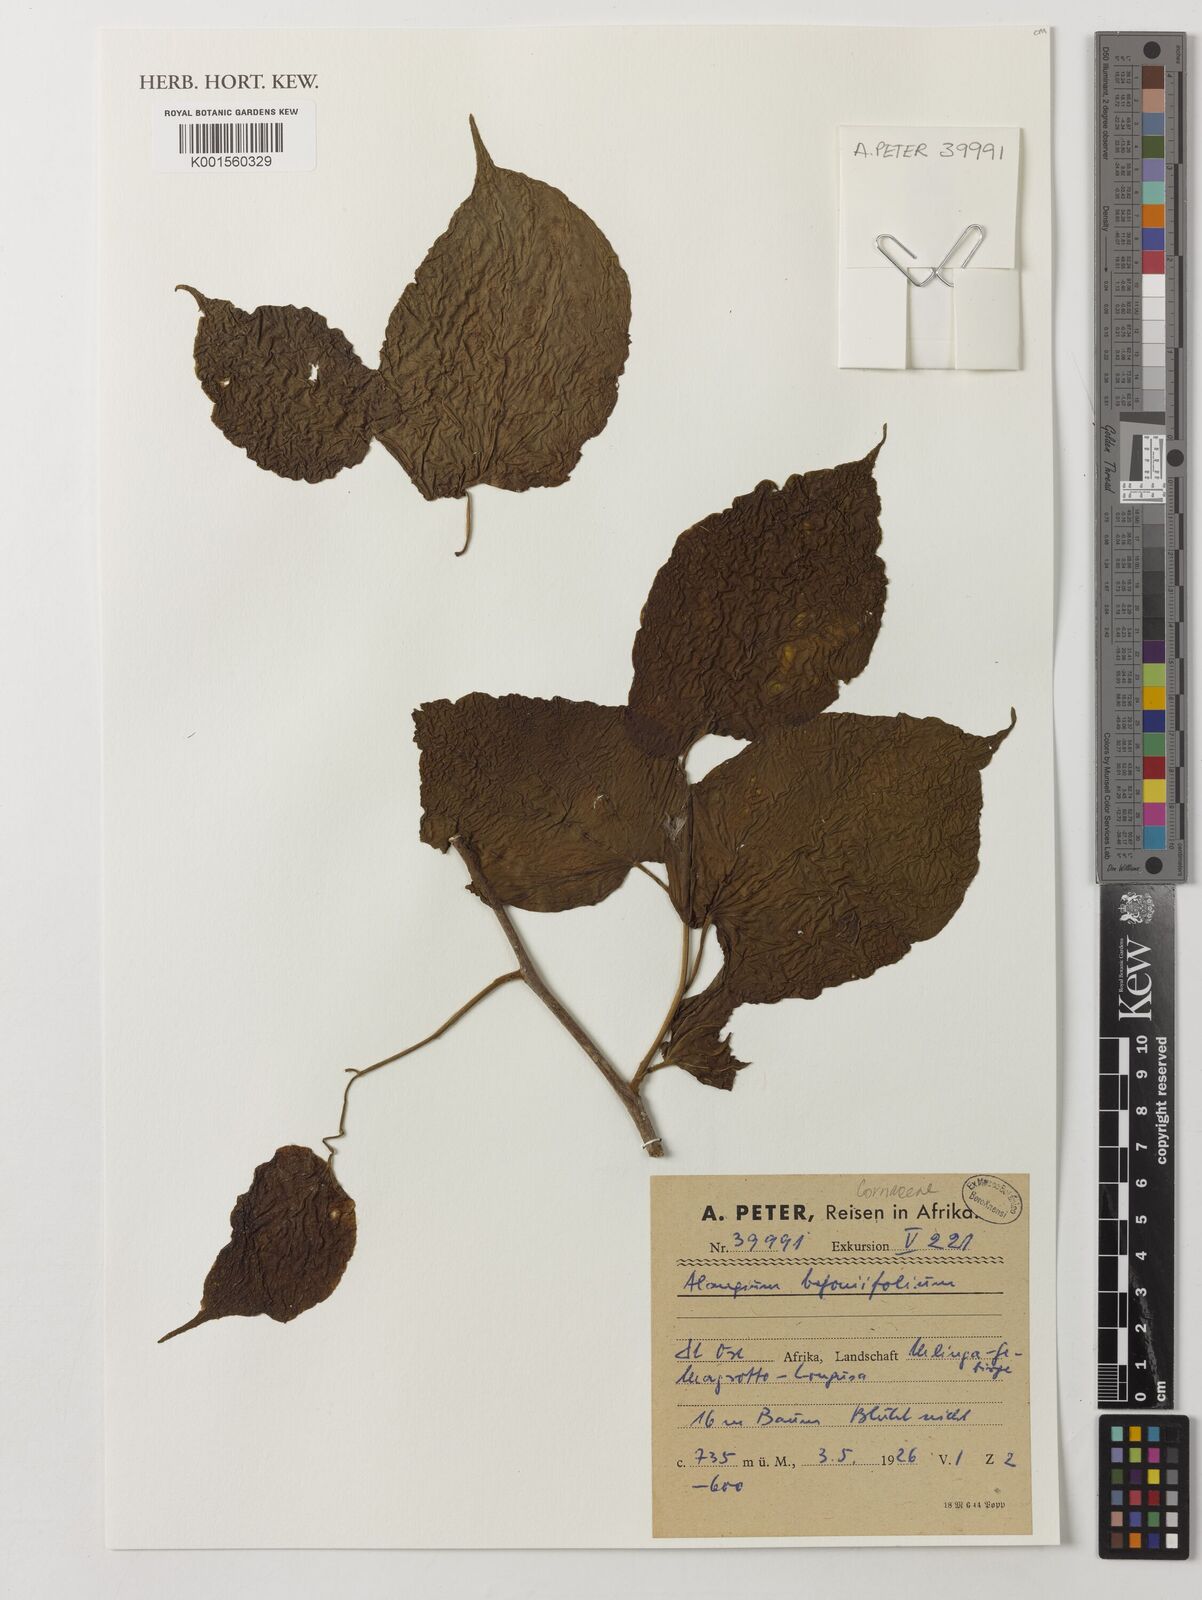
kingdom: Plantae
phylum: Tracheophyta
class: Magnoliopsida
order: Cornales
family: Cornaceae
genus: Alangium
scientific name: Alangium chinense
